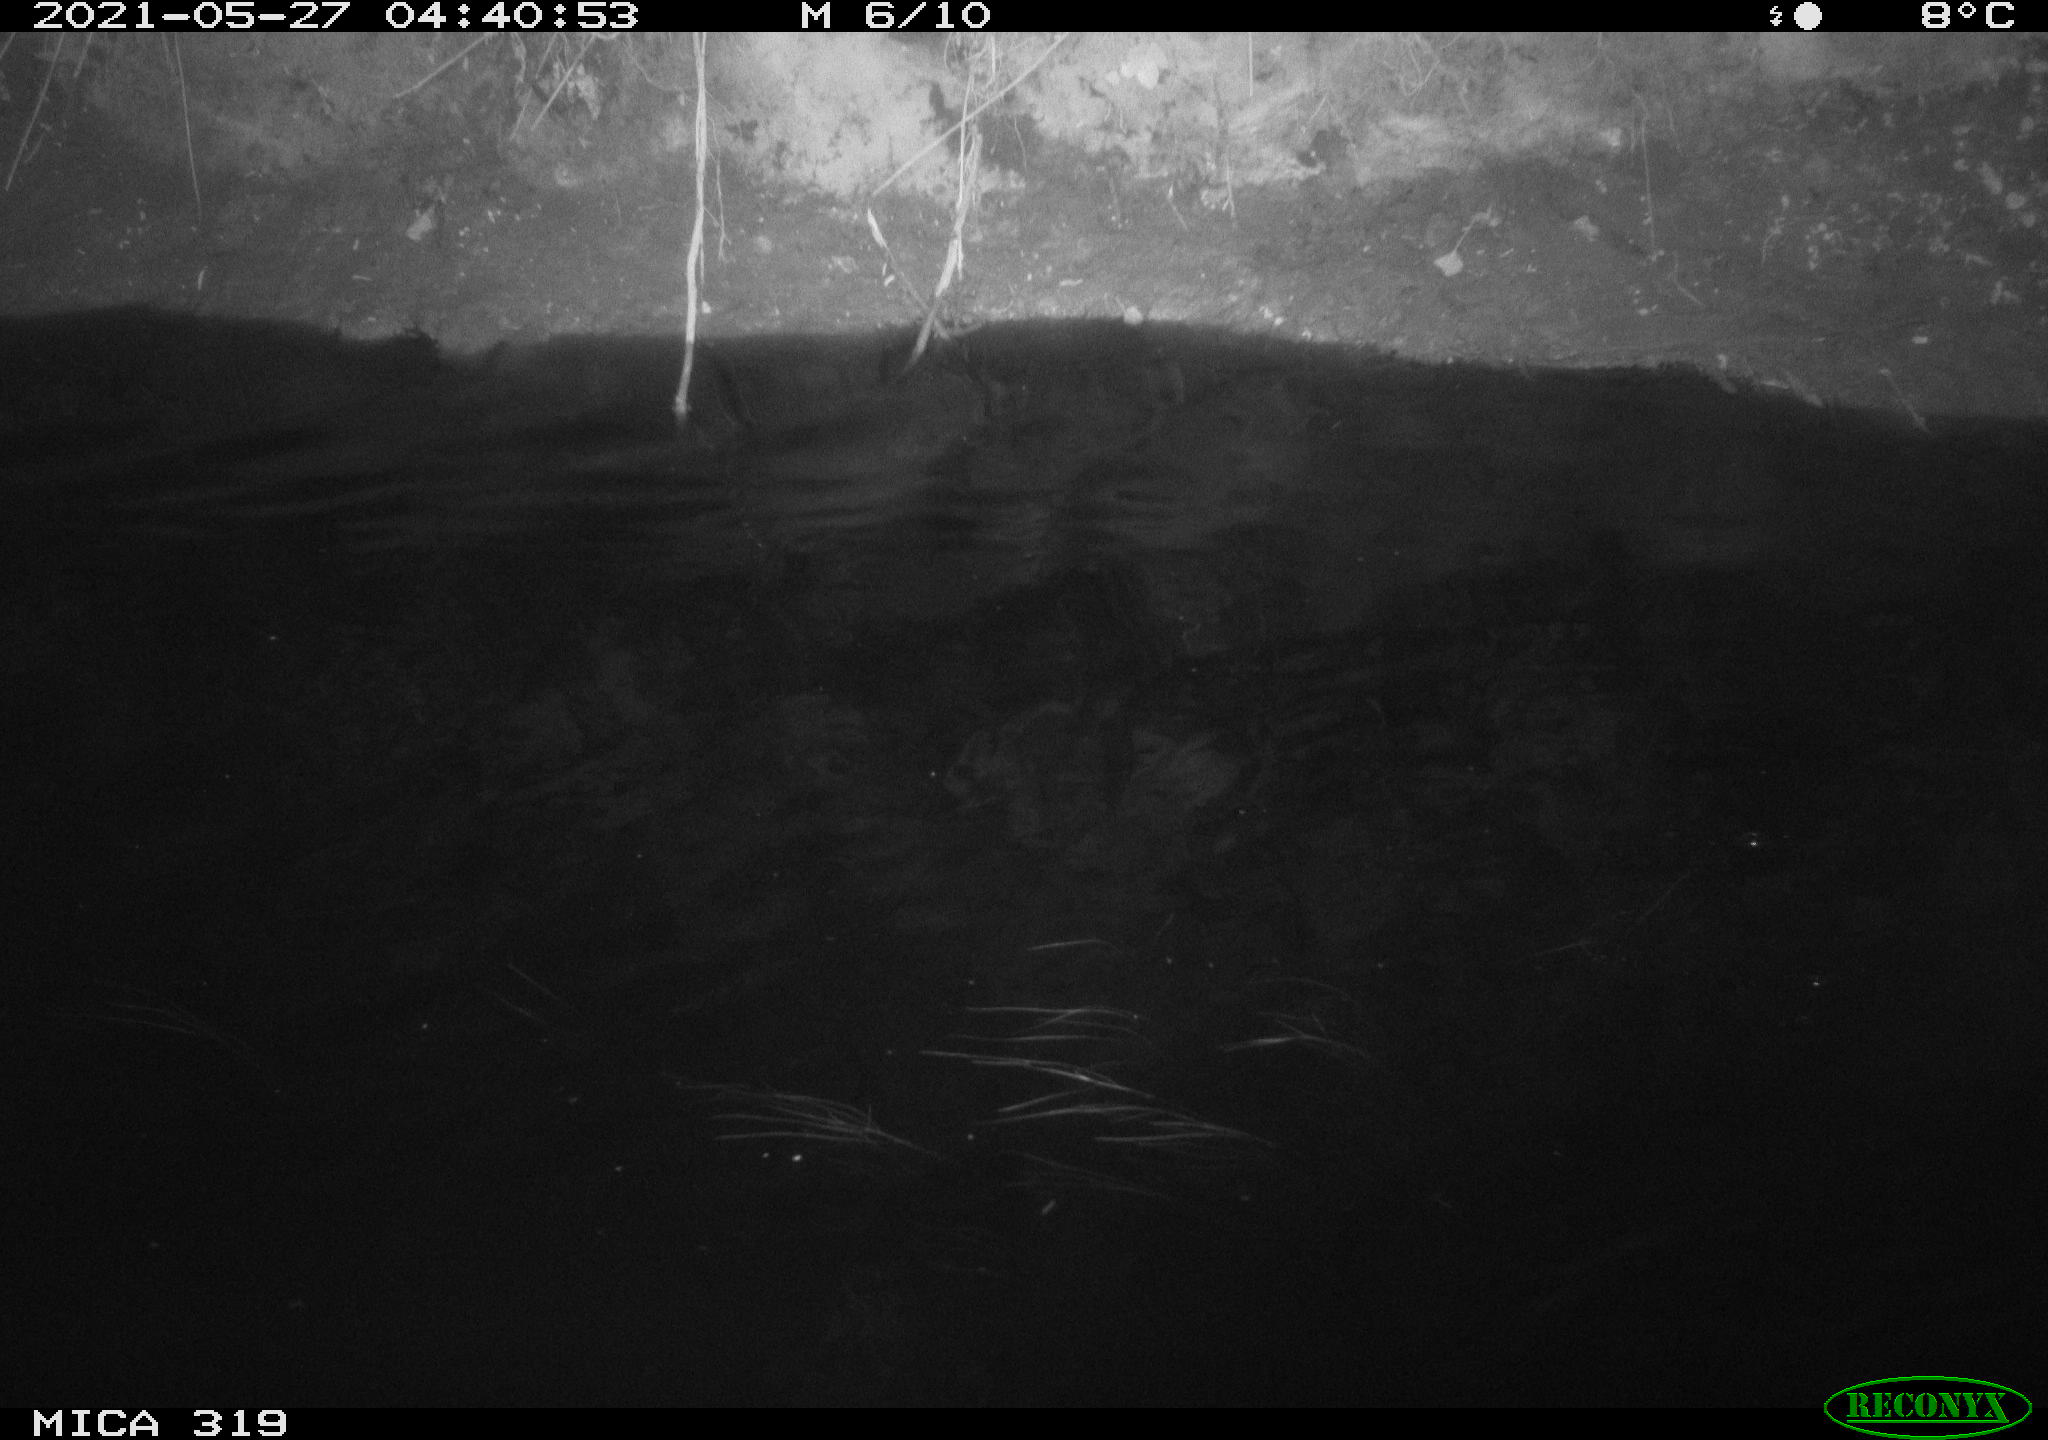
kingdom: Animalia
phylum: Chordata
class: Aves
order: Anseriformes
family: Anatidae
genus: Anas
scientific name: Anas platyrhynchos
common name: Mallard
